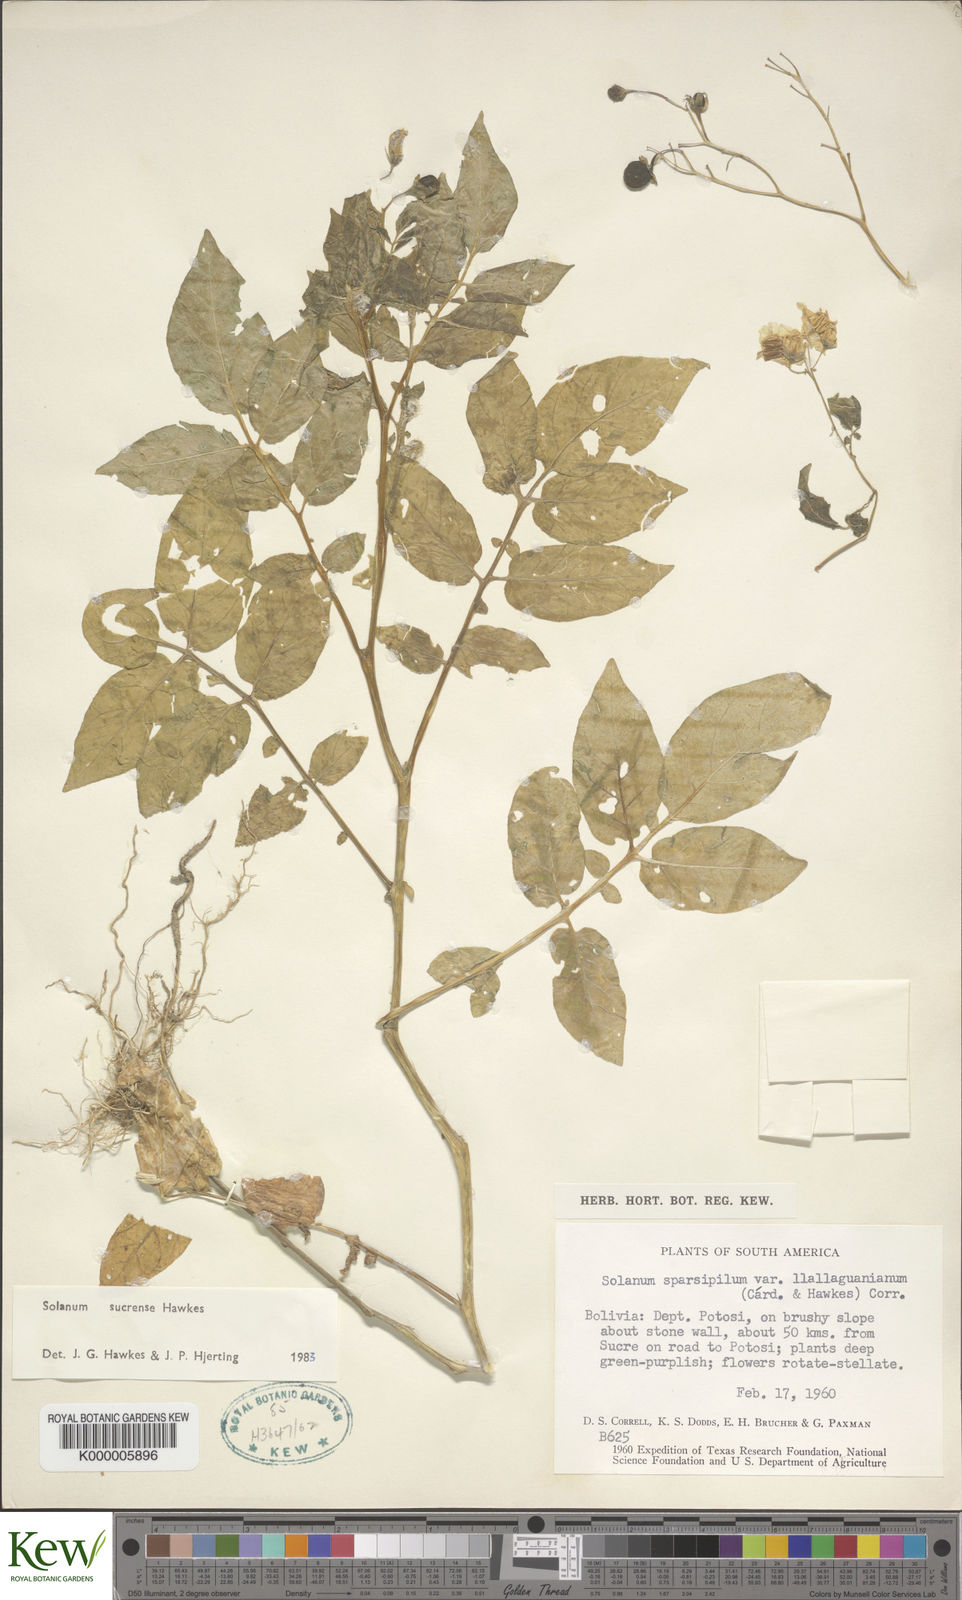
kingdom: Plantae
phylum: Tracheophyta
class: Magnoliopsida
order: Solanales
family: Solanaceae
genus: Solanum
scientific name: Solanum brevicaule
